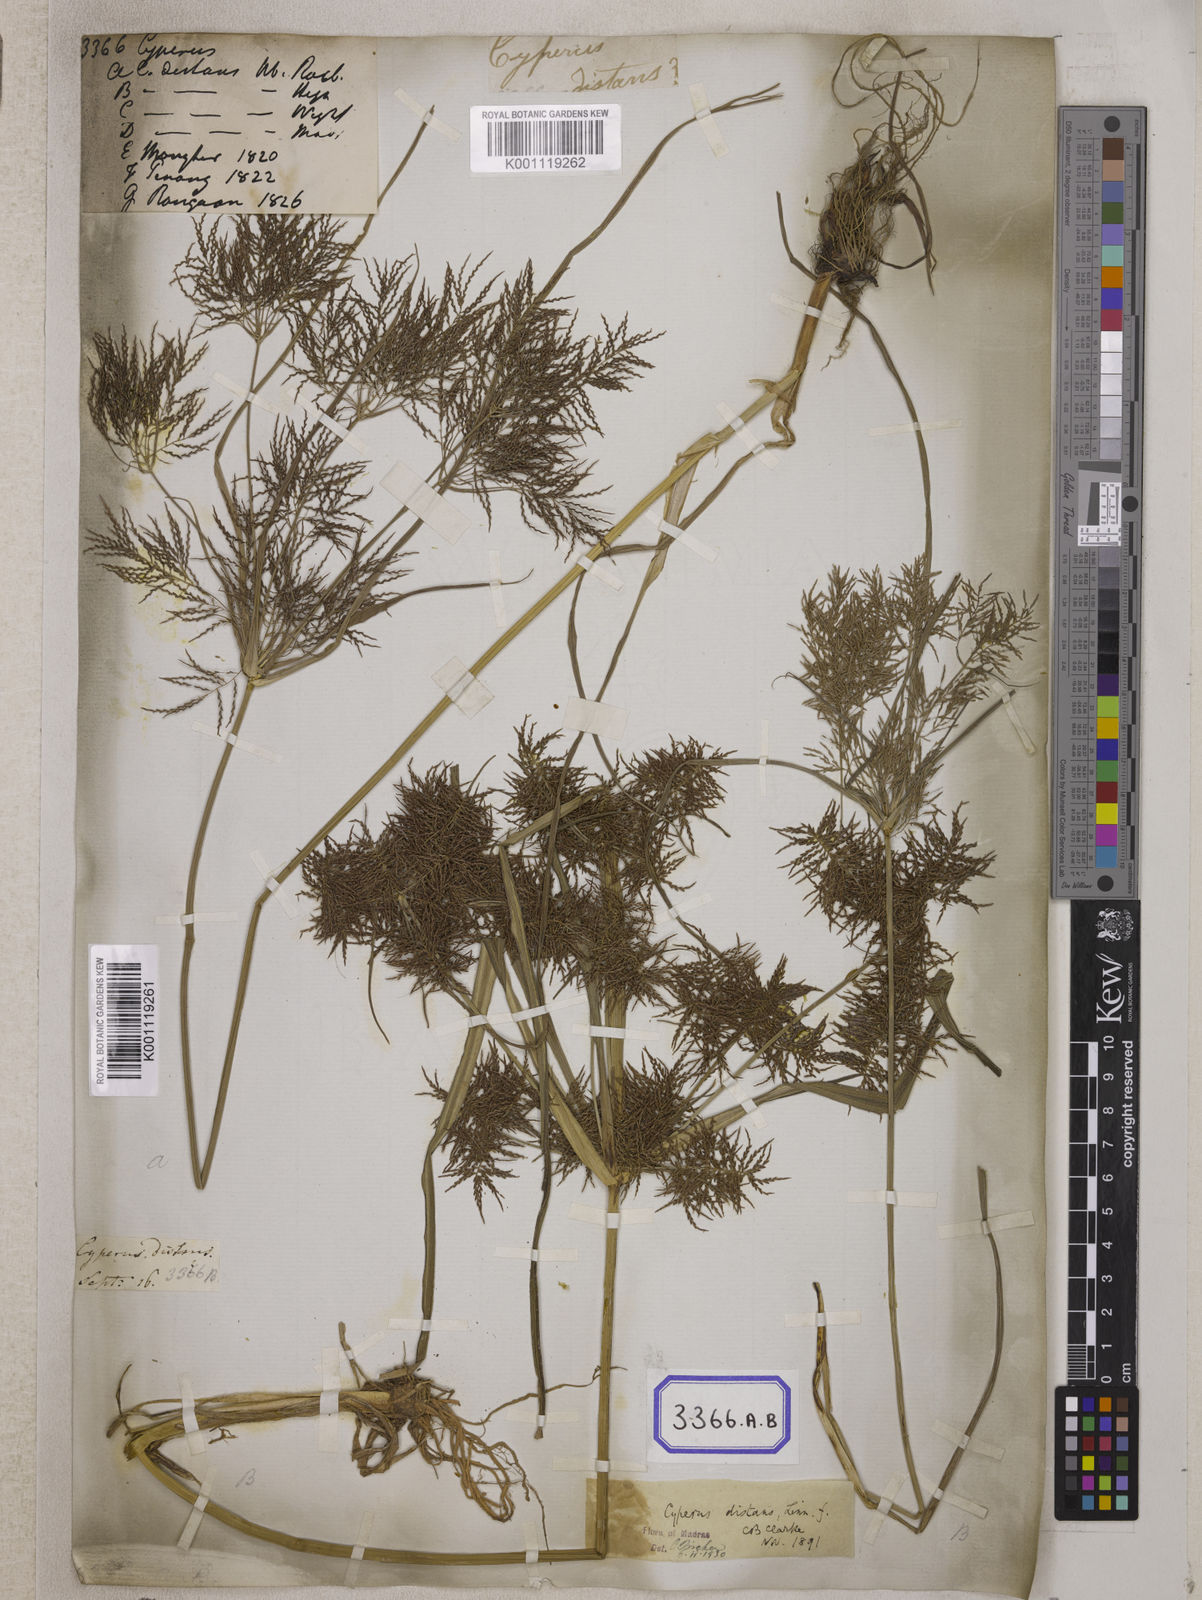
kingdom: Plantae
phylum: Tracheophyta
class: Liliopsida
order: Poales
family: Cyperaceae
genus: Cyperus
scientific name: Cyperus
